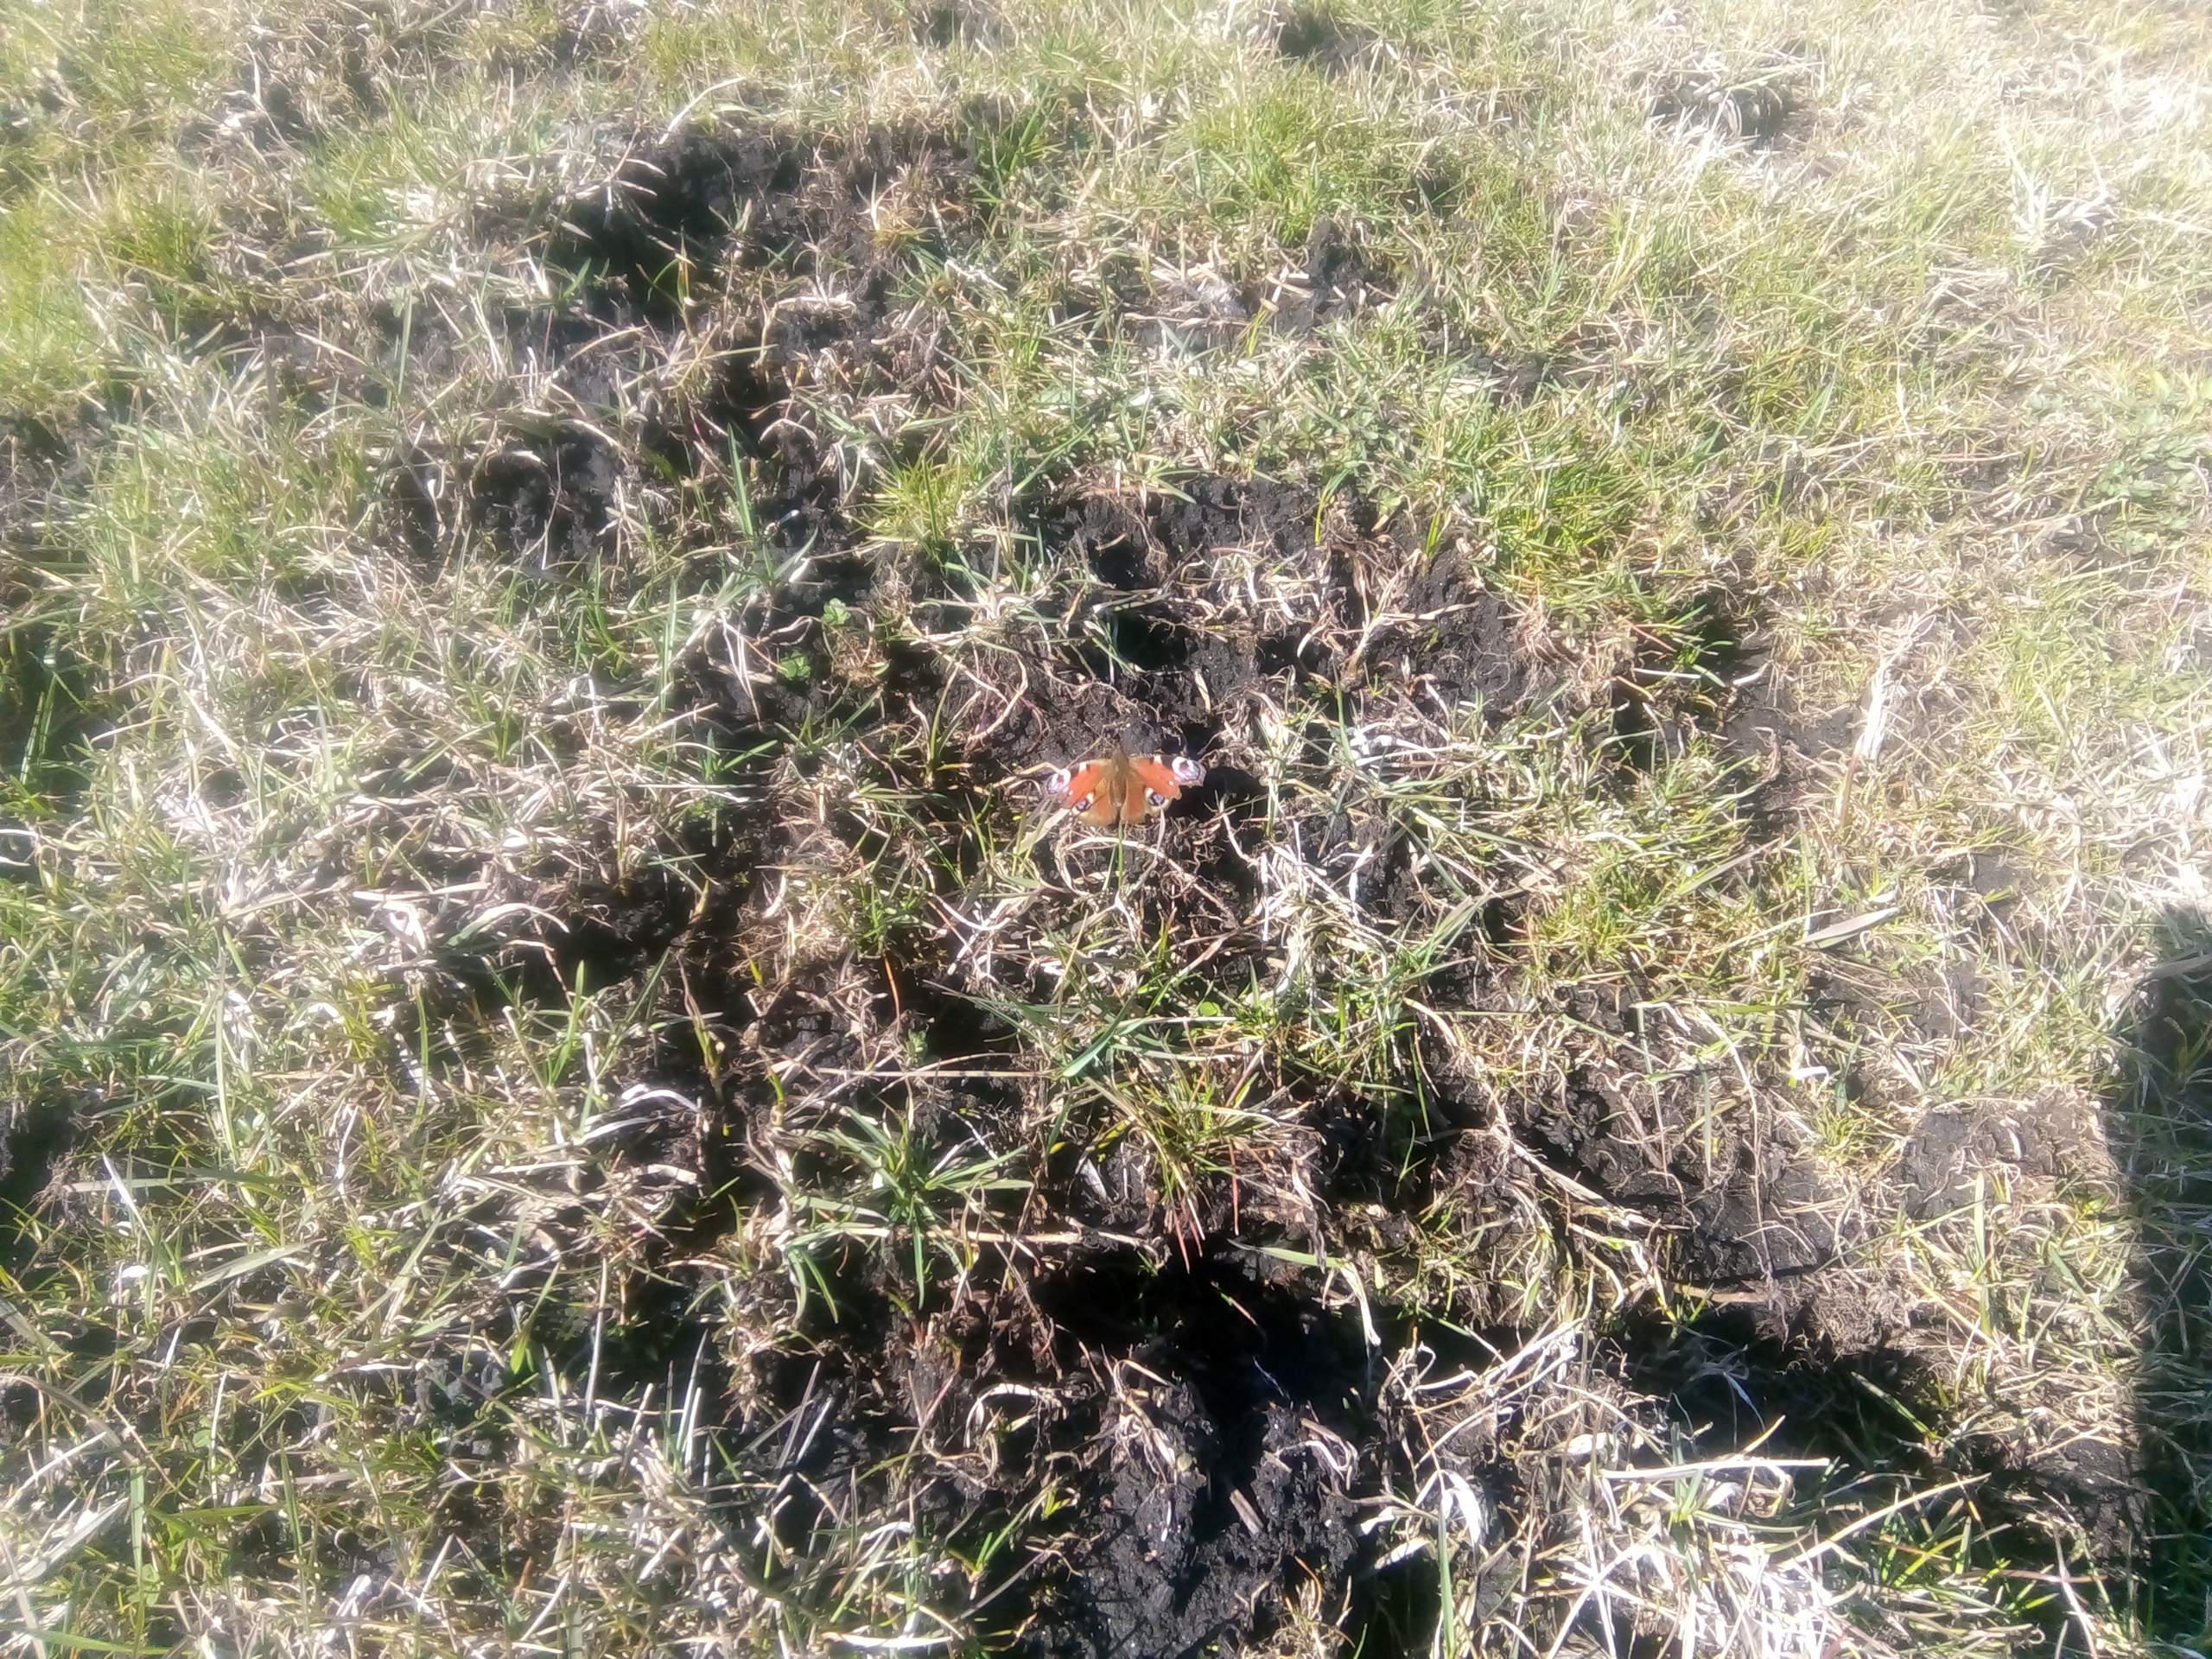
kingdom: Animalia
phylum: Arthropoda
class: Insecta
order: Lepidoptera
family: Nymphalidae
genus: Aglais
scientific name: Aglais io
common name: Dagpåfugleøje
